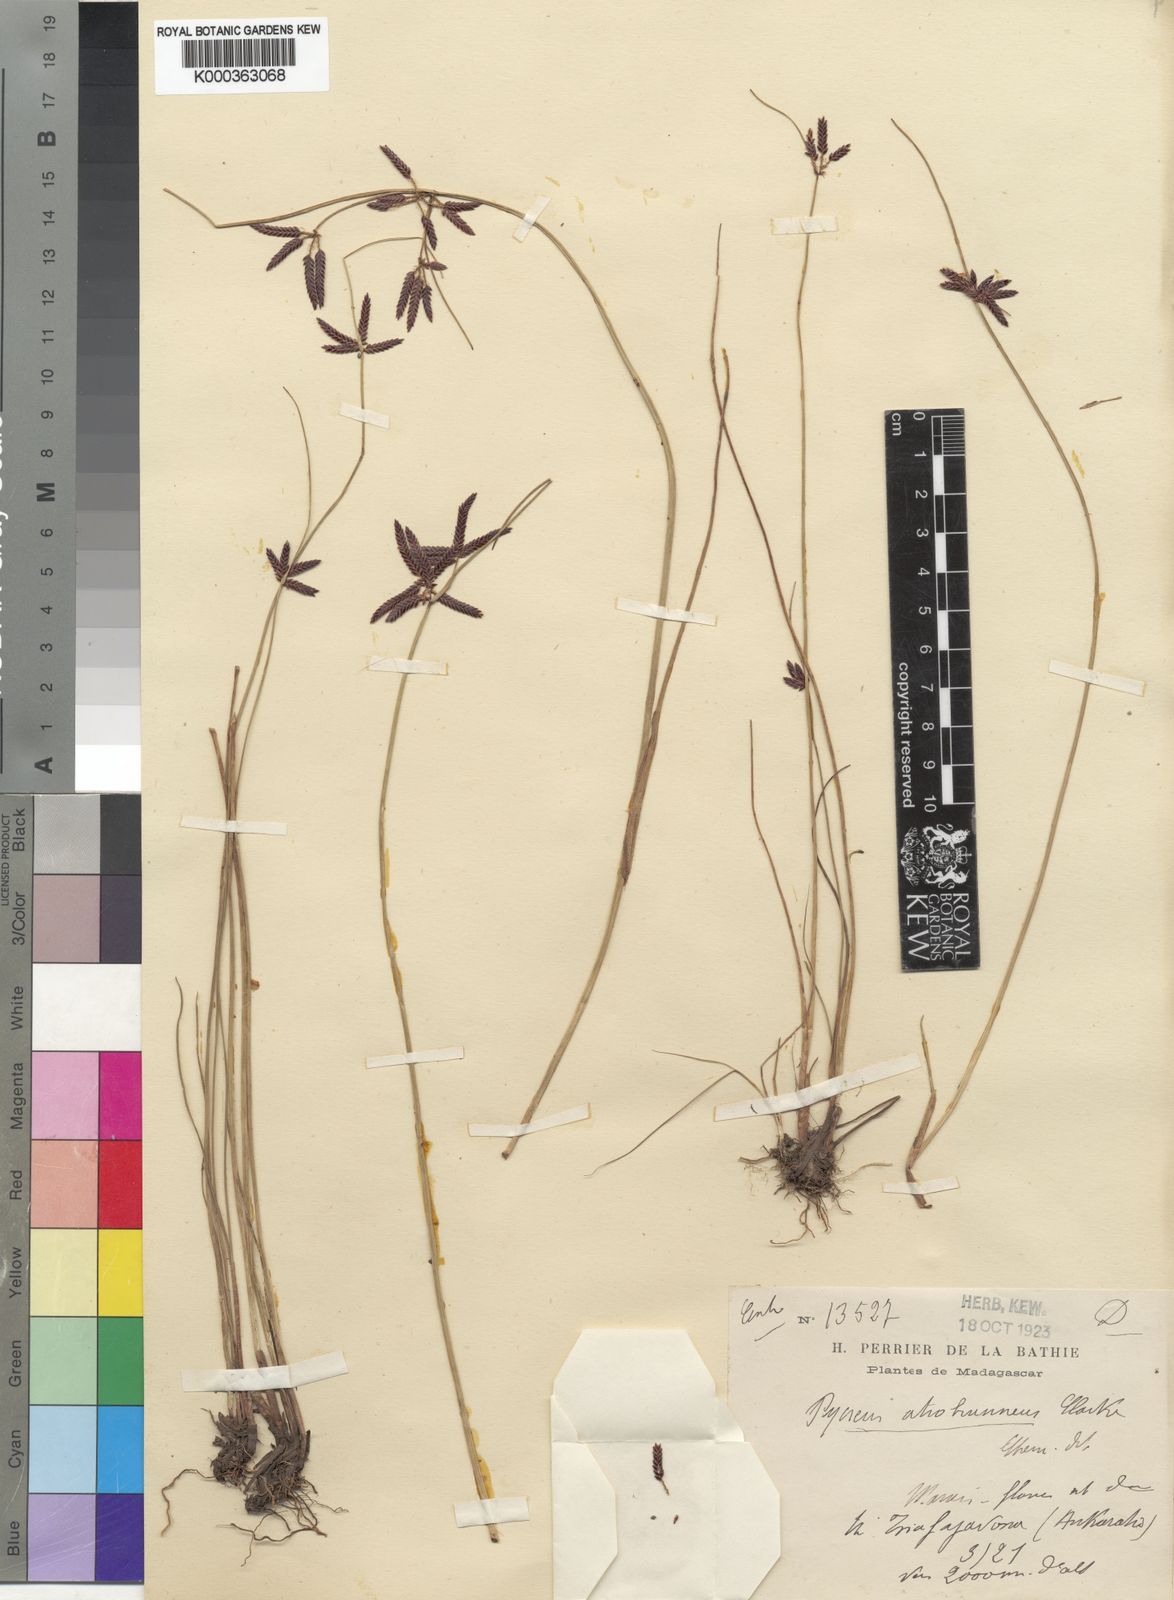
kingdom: Plantae
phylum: Tracheophyta
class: Liliopsida
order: Poales
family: Cyperaceae
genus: Cyperus
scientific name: Cyperus atrobrunneus
